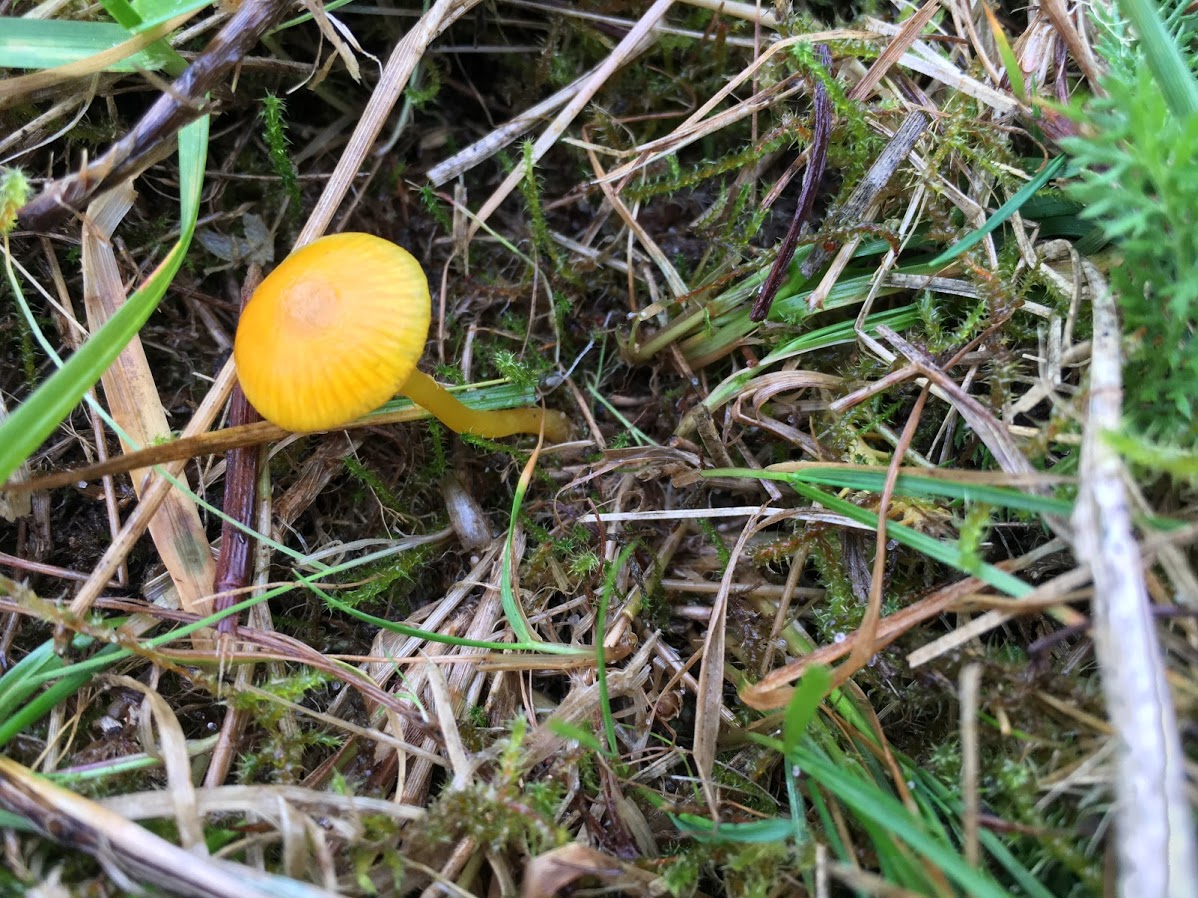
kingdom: Fungi
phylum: Basidiomycota
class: Agaricomycetes
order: Agaricales
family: Hygrophoraceae
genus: Hygrocybe
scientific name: Hygrocybe ceracea
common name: voksgul vokshat
